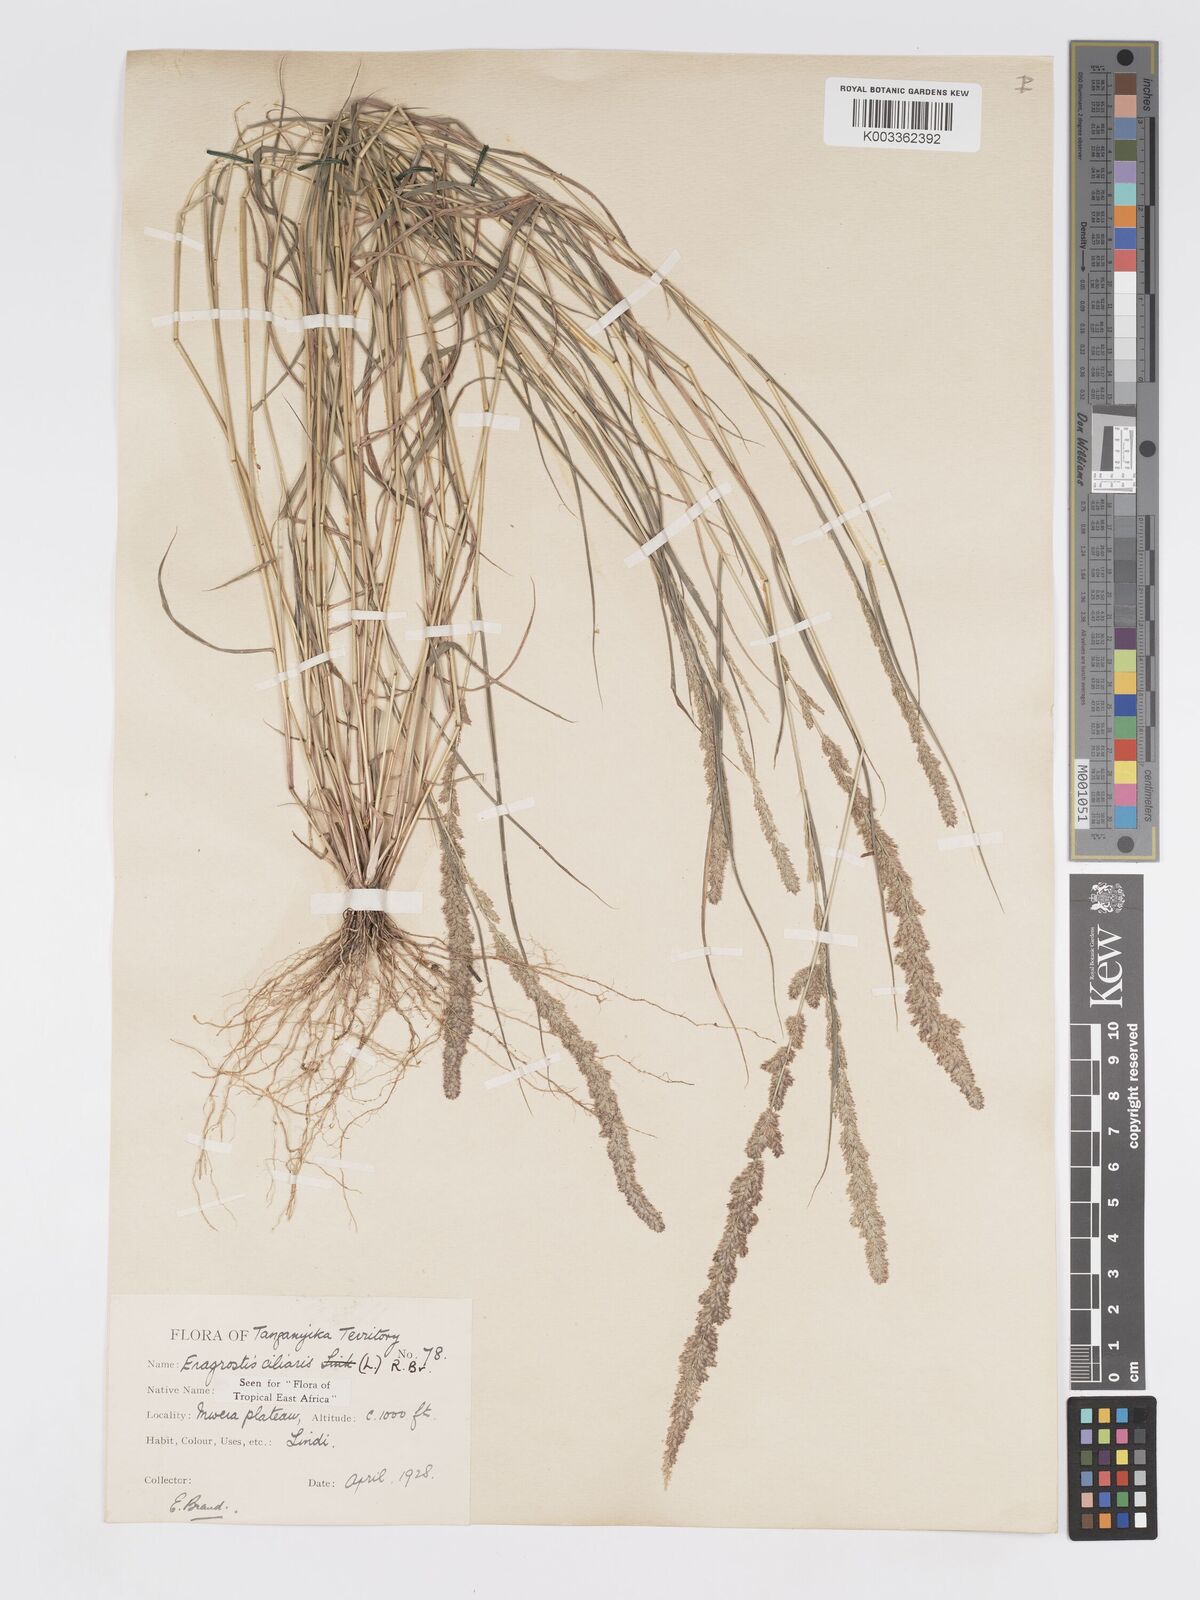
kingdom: Plantae
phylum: Tracheophyta
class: Liliopsida
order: Poales
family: Poaceae
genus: Eragrostis
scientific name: Eragrostis ciliaris
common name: Gophertail lovegrass
